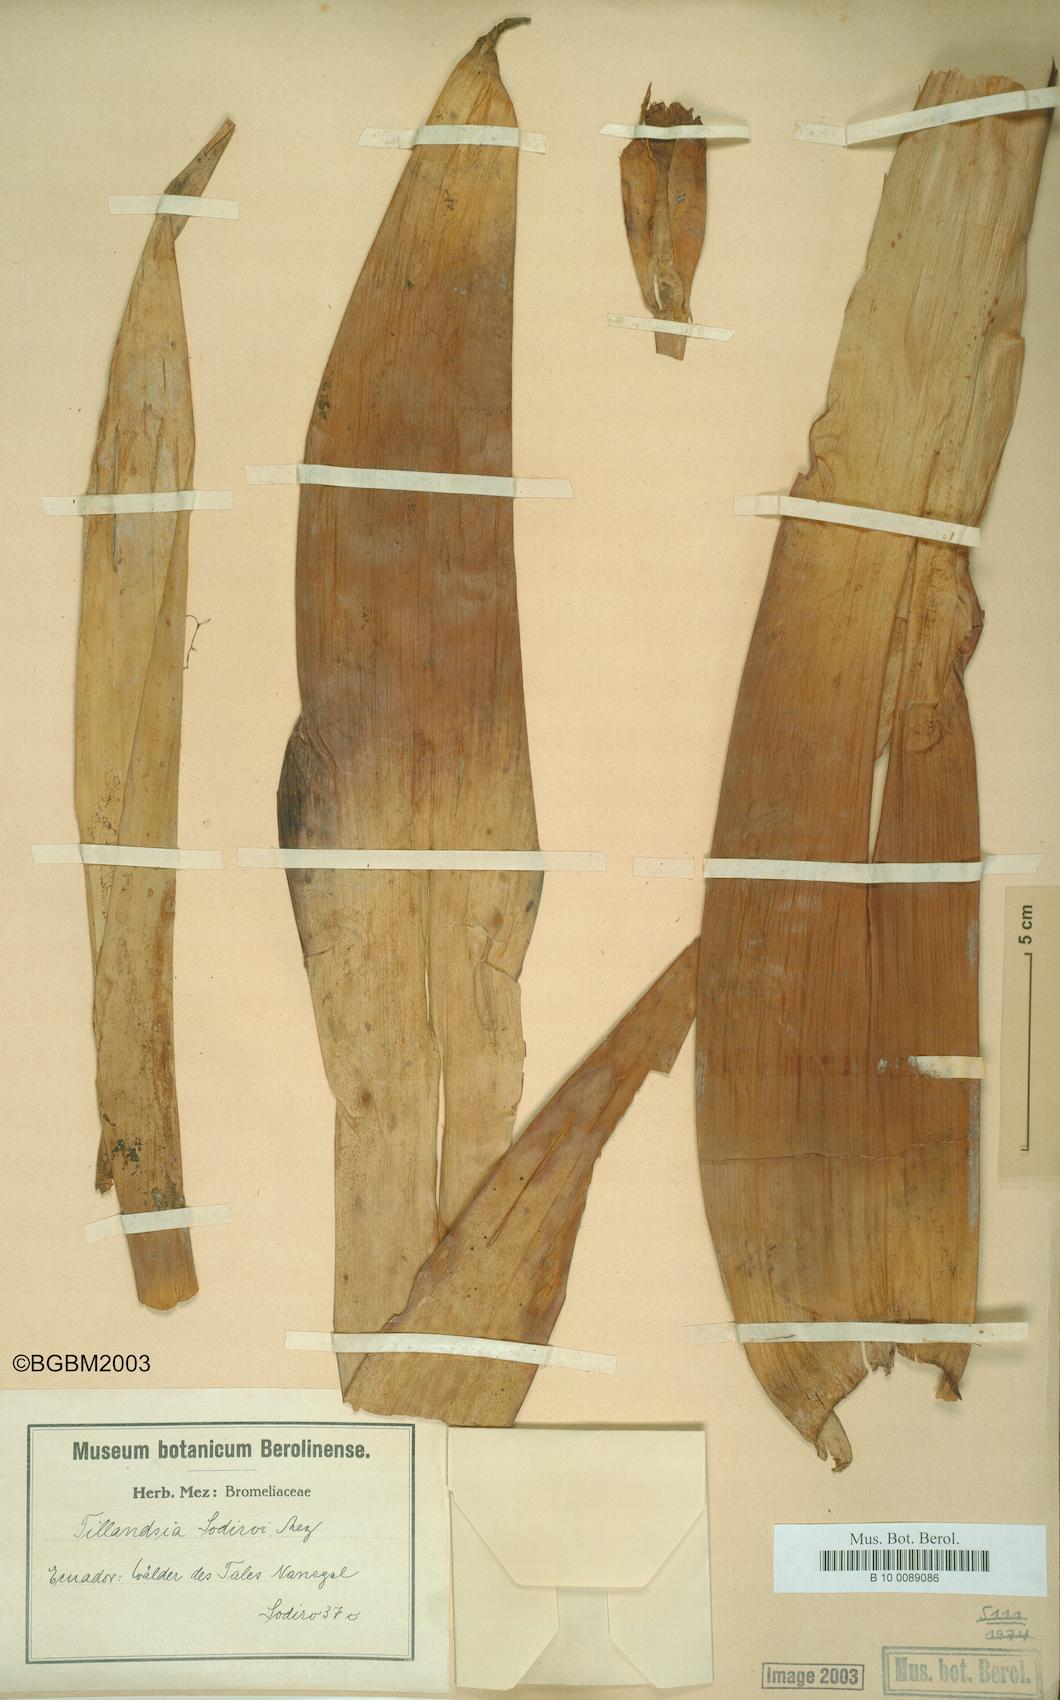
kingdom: Plantae
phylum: Tracheophyta
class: Liliopsida
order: Poales
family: Bromeliaceae
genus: Tillandsia
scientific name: Tillandsia sodiroi
